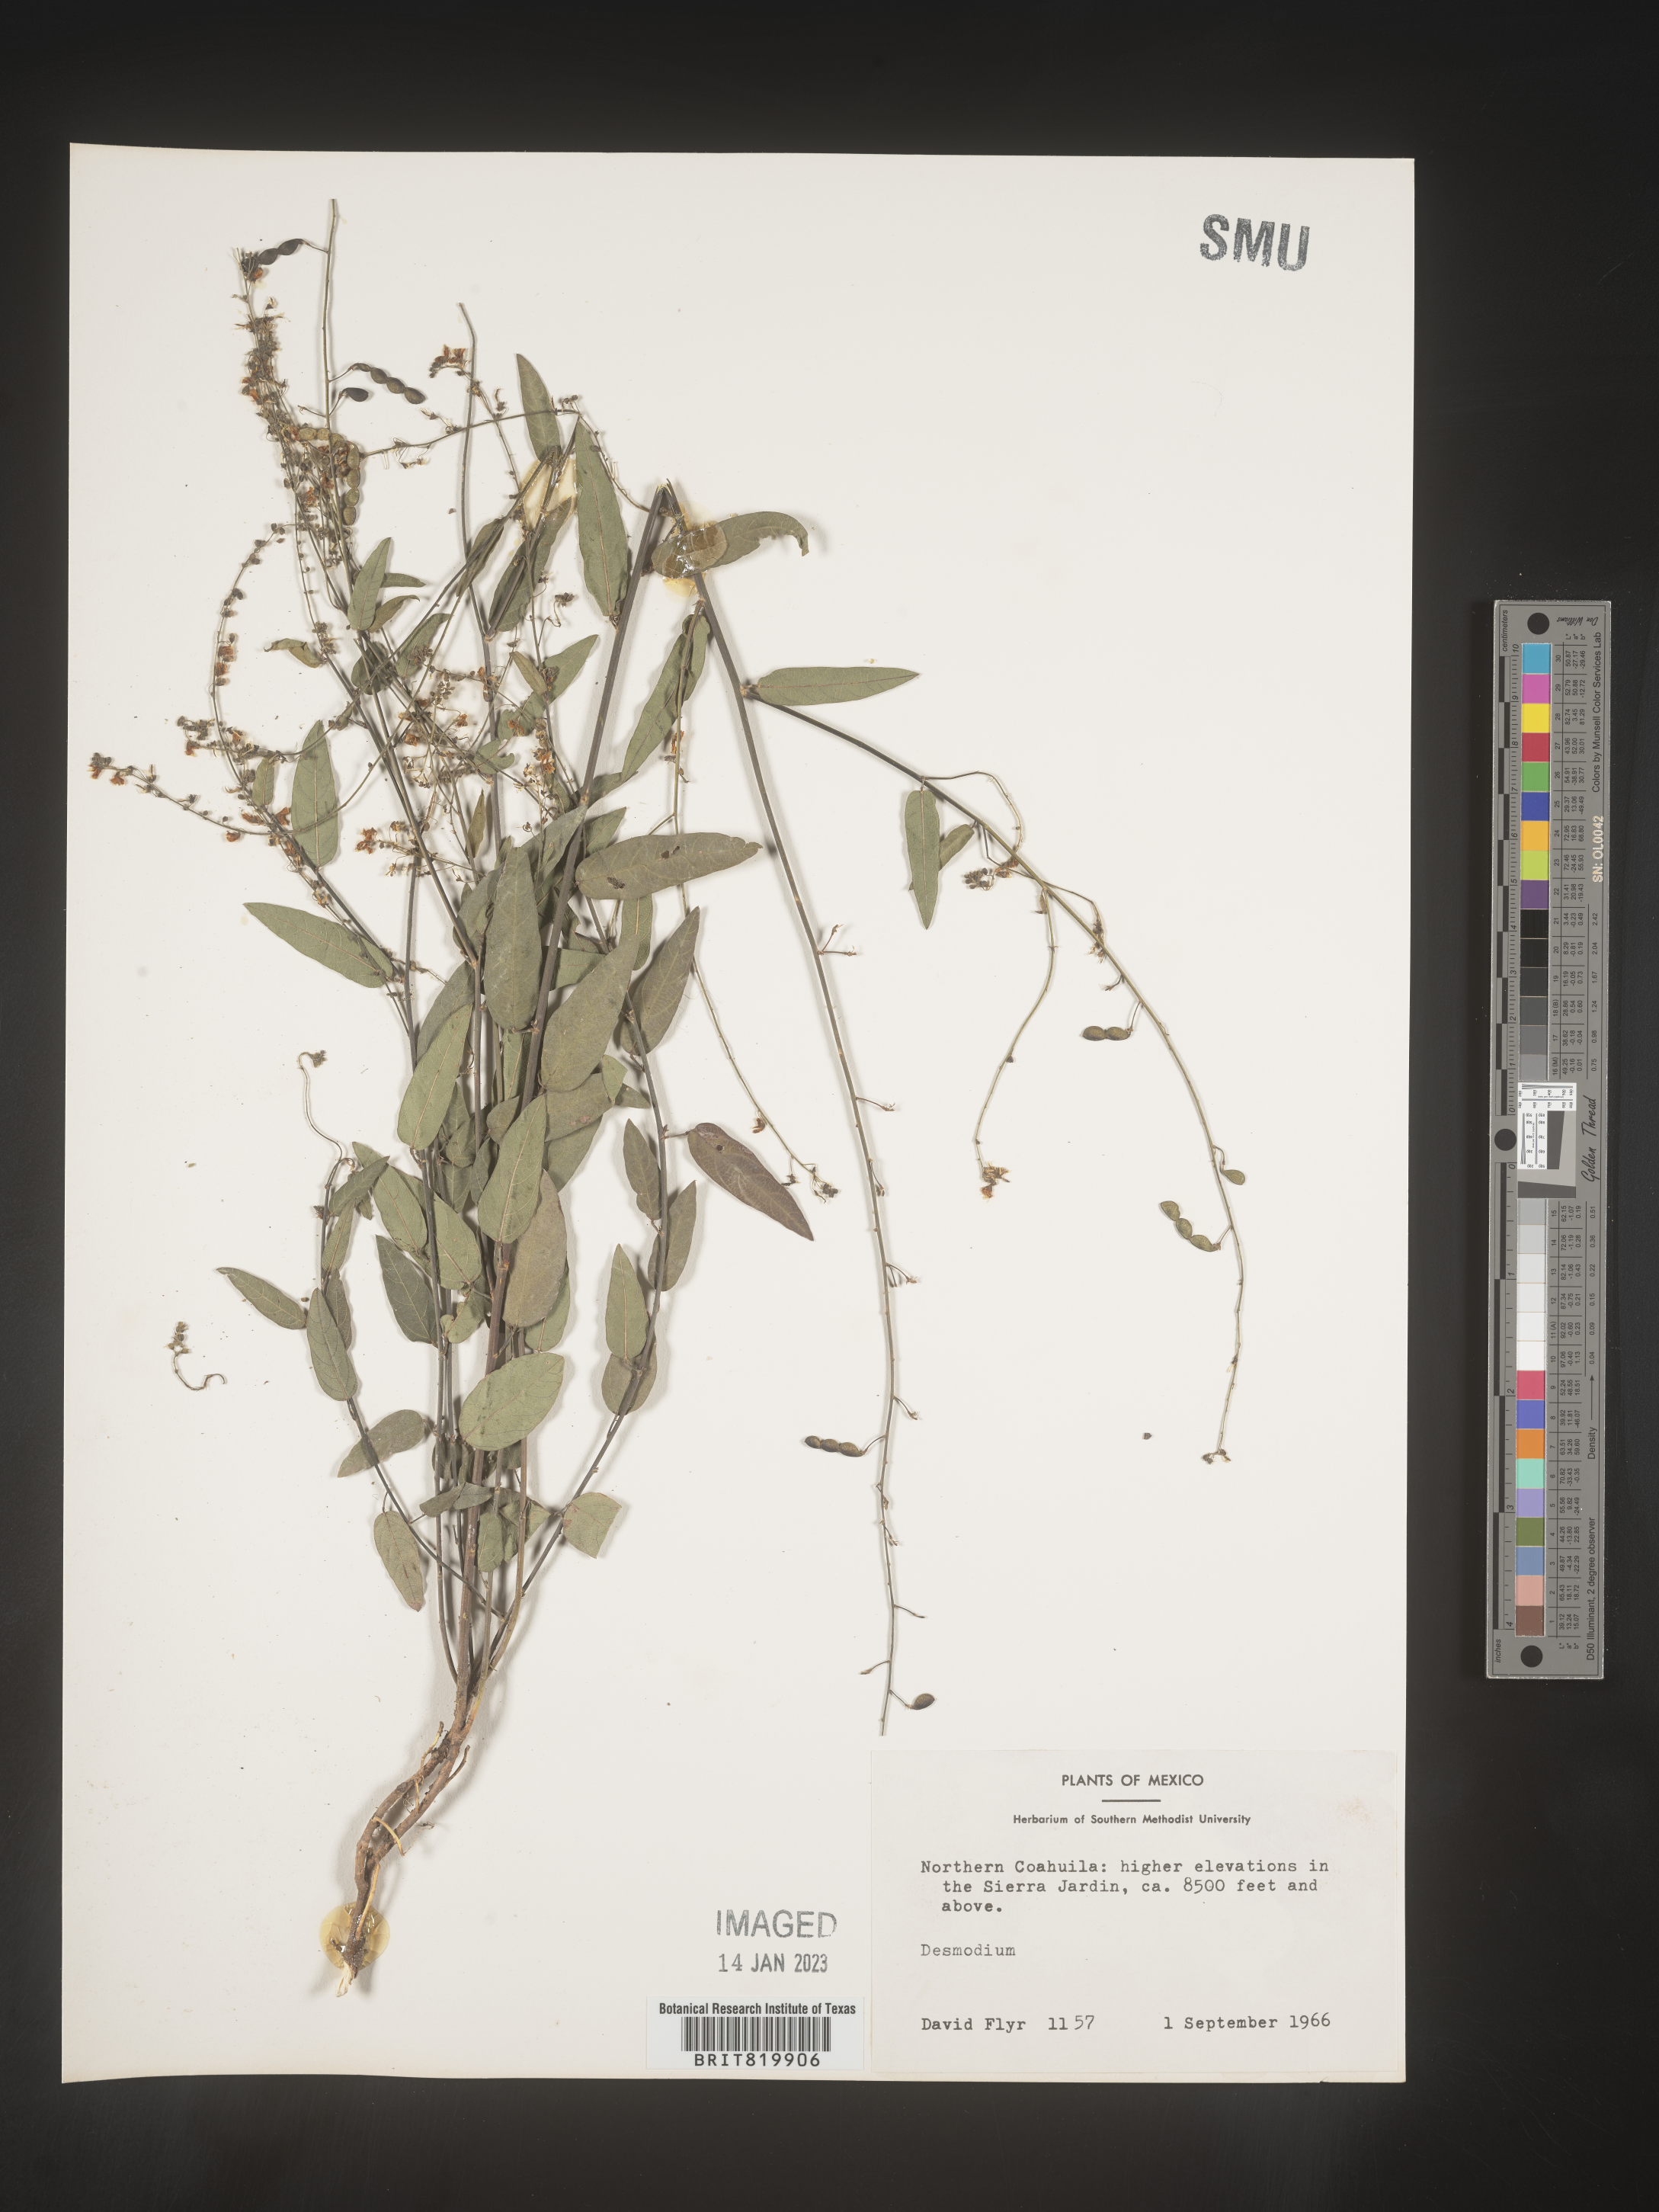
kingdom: Plantae
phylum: Tracheophyta
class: Magnoliopsida
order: Fabales
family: Fabaceae
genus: Desmodium
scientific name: Desmodium
